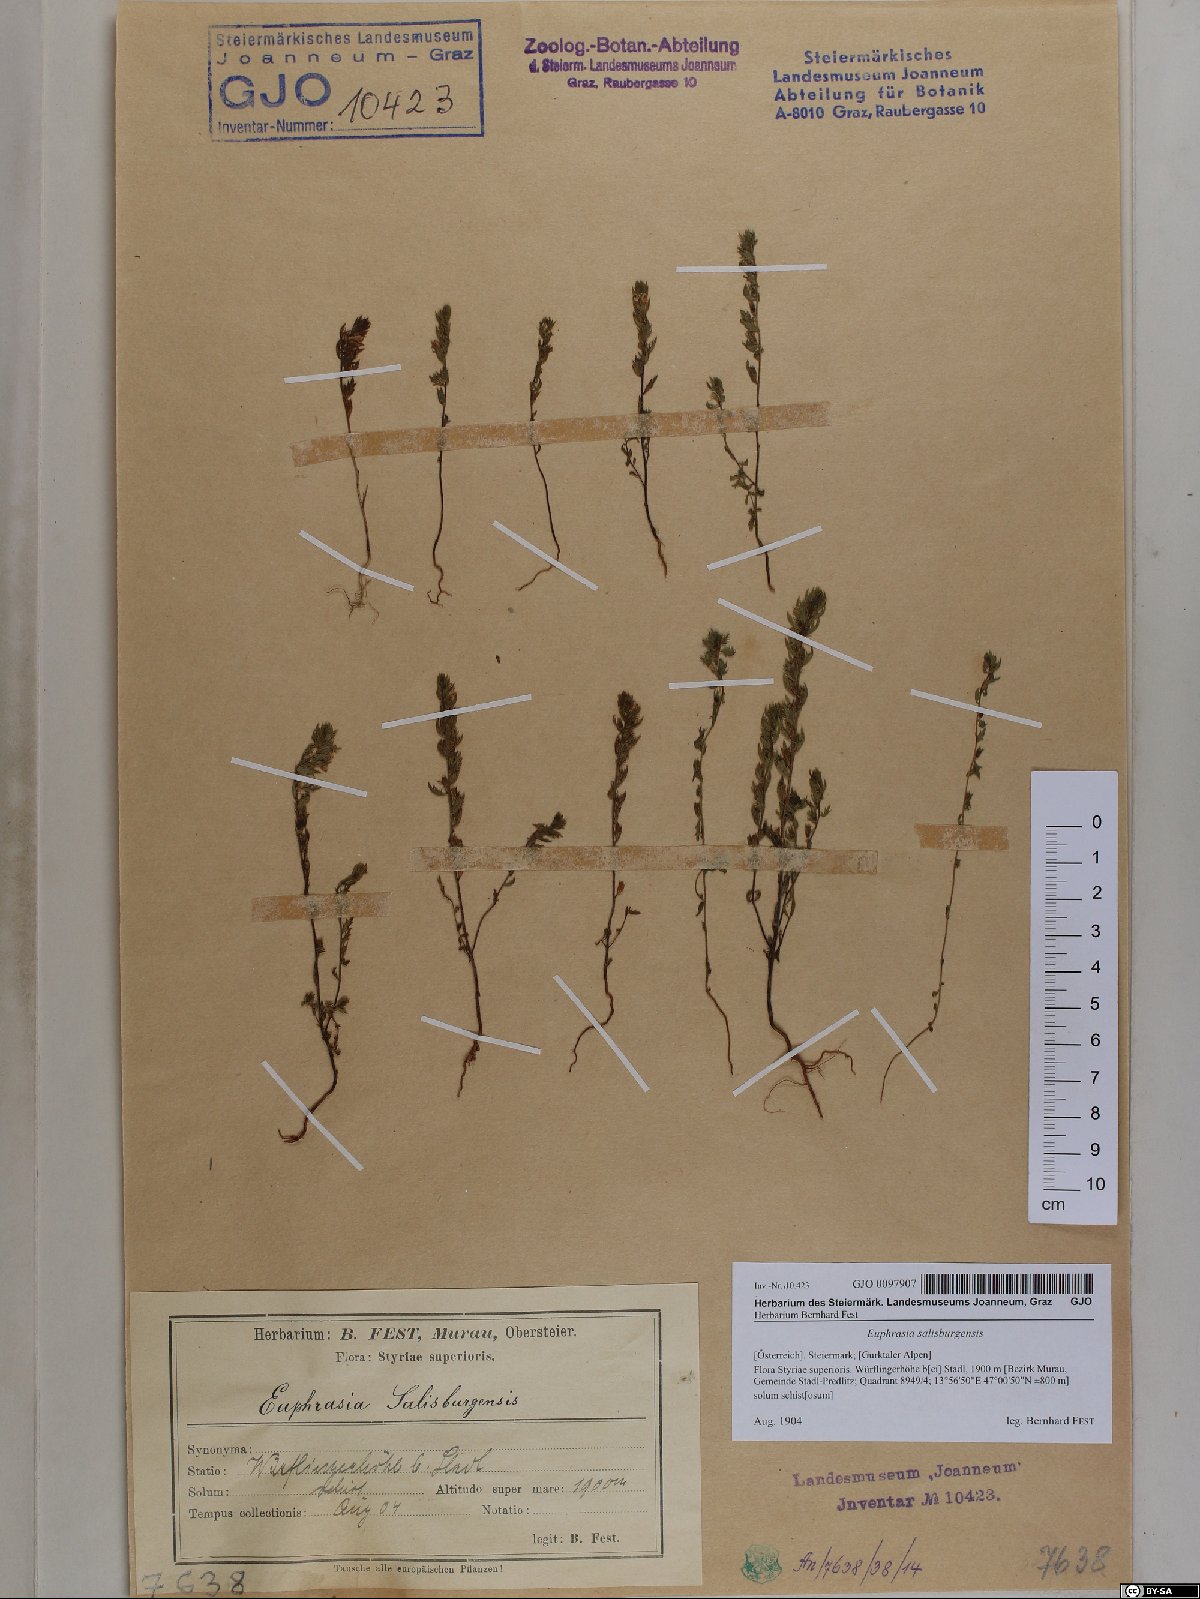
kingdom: Plantae
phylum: Tracheophyta
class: Magnoliopsida
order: Lamiales
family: Orobanchaceae
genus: Euphrasia
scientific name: Euphrasia salisburgensis
